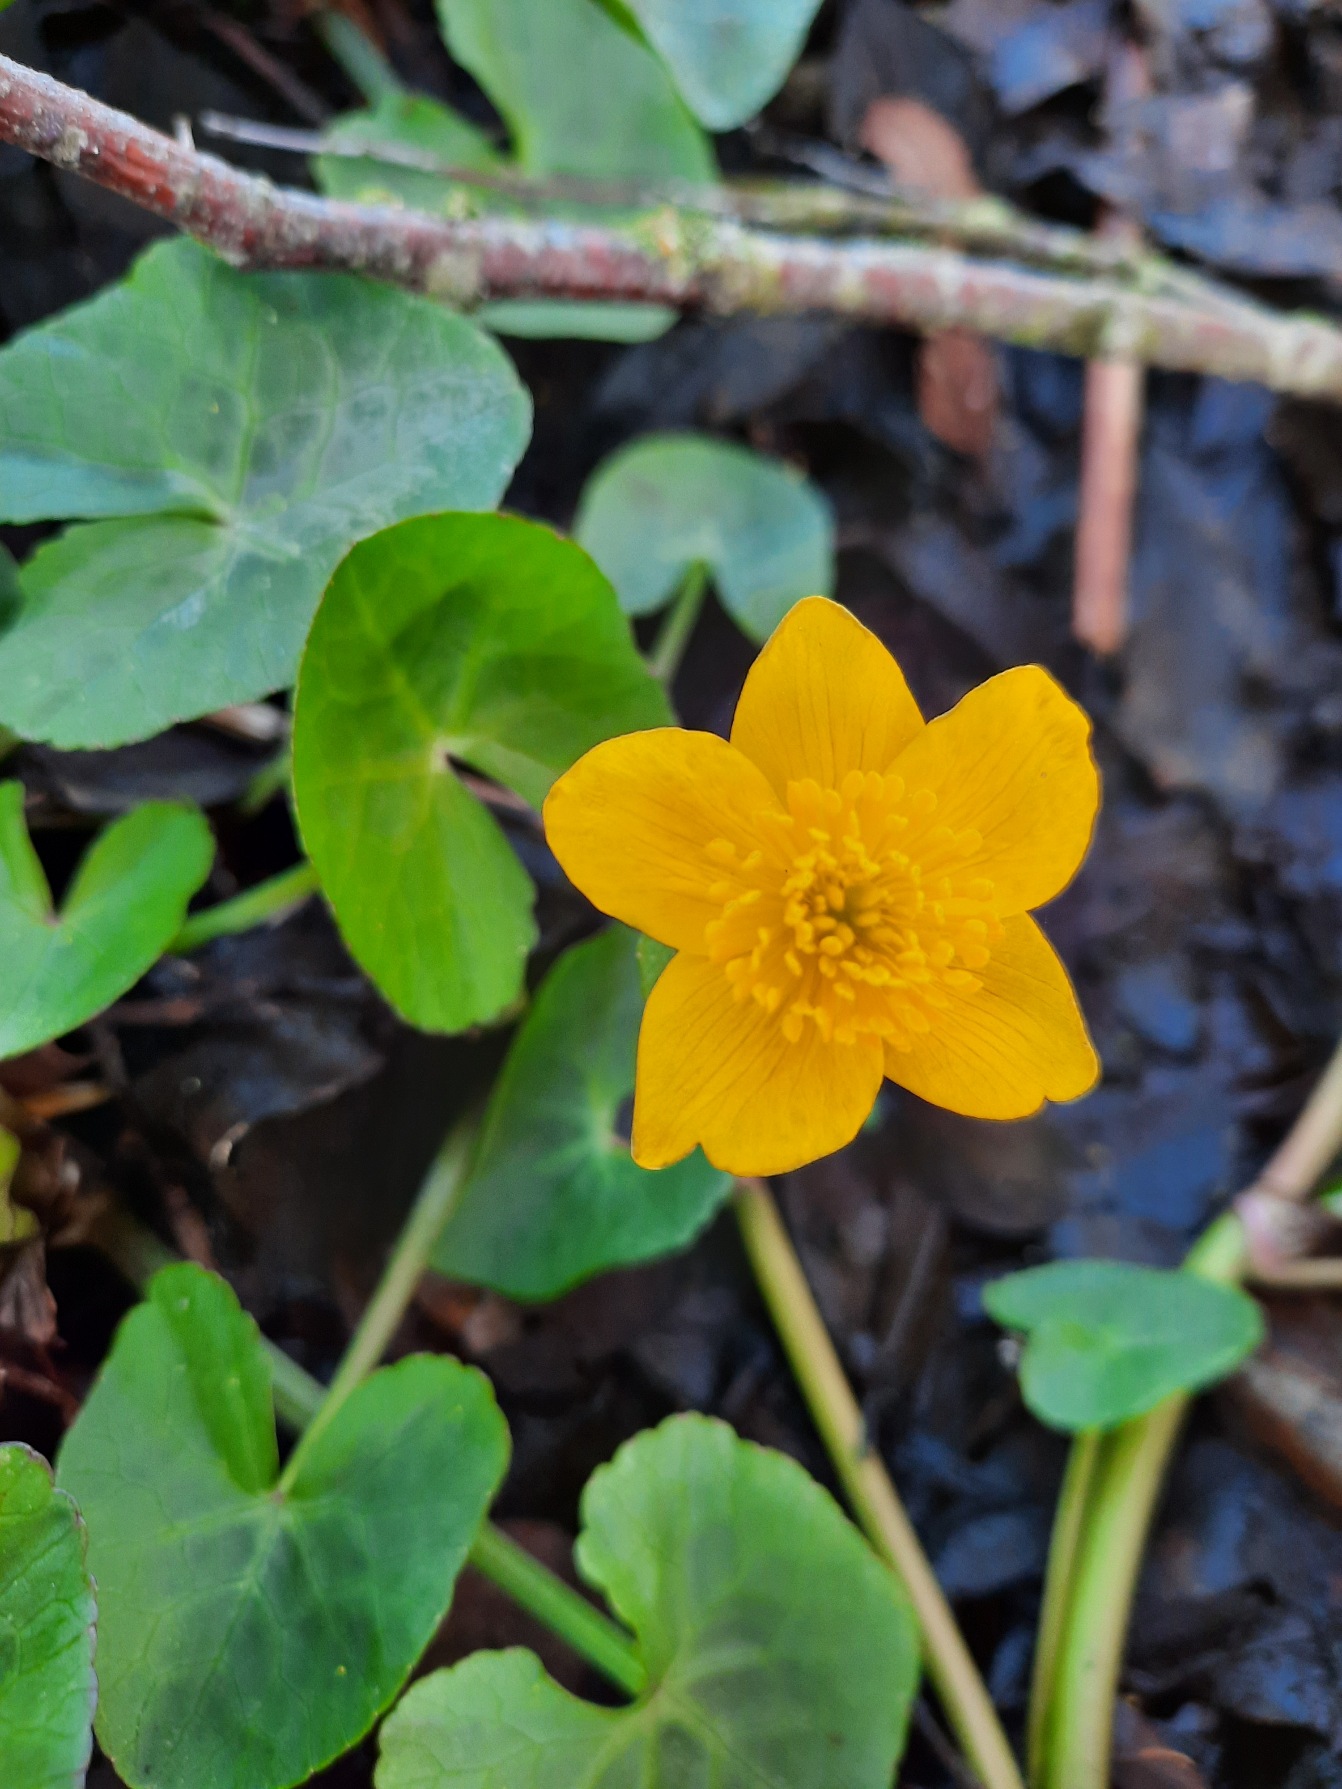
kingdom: Plantae
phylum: Tracheophyta
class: Magnoliopsida
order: Ranunculales
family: Ranunculaceae
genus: Caltha
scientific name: Caltha palustris
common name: Eng-kabbeleje
